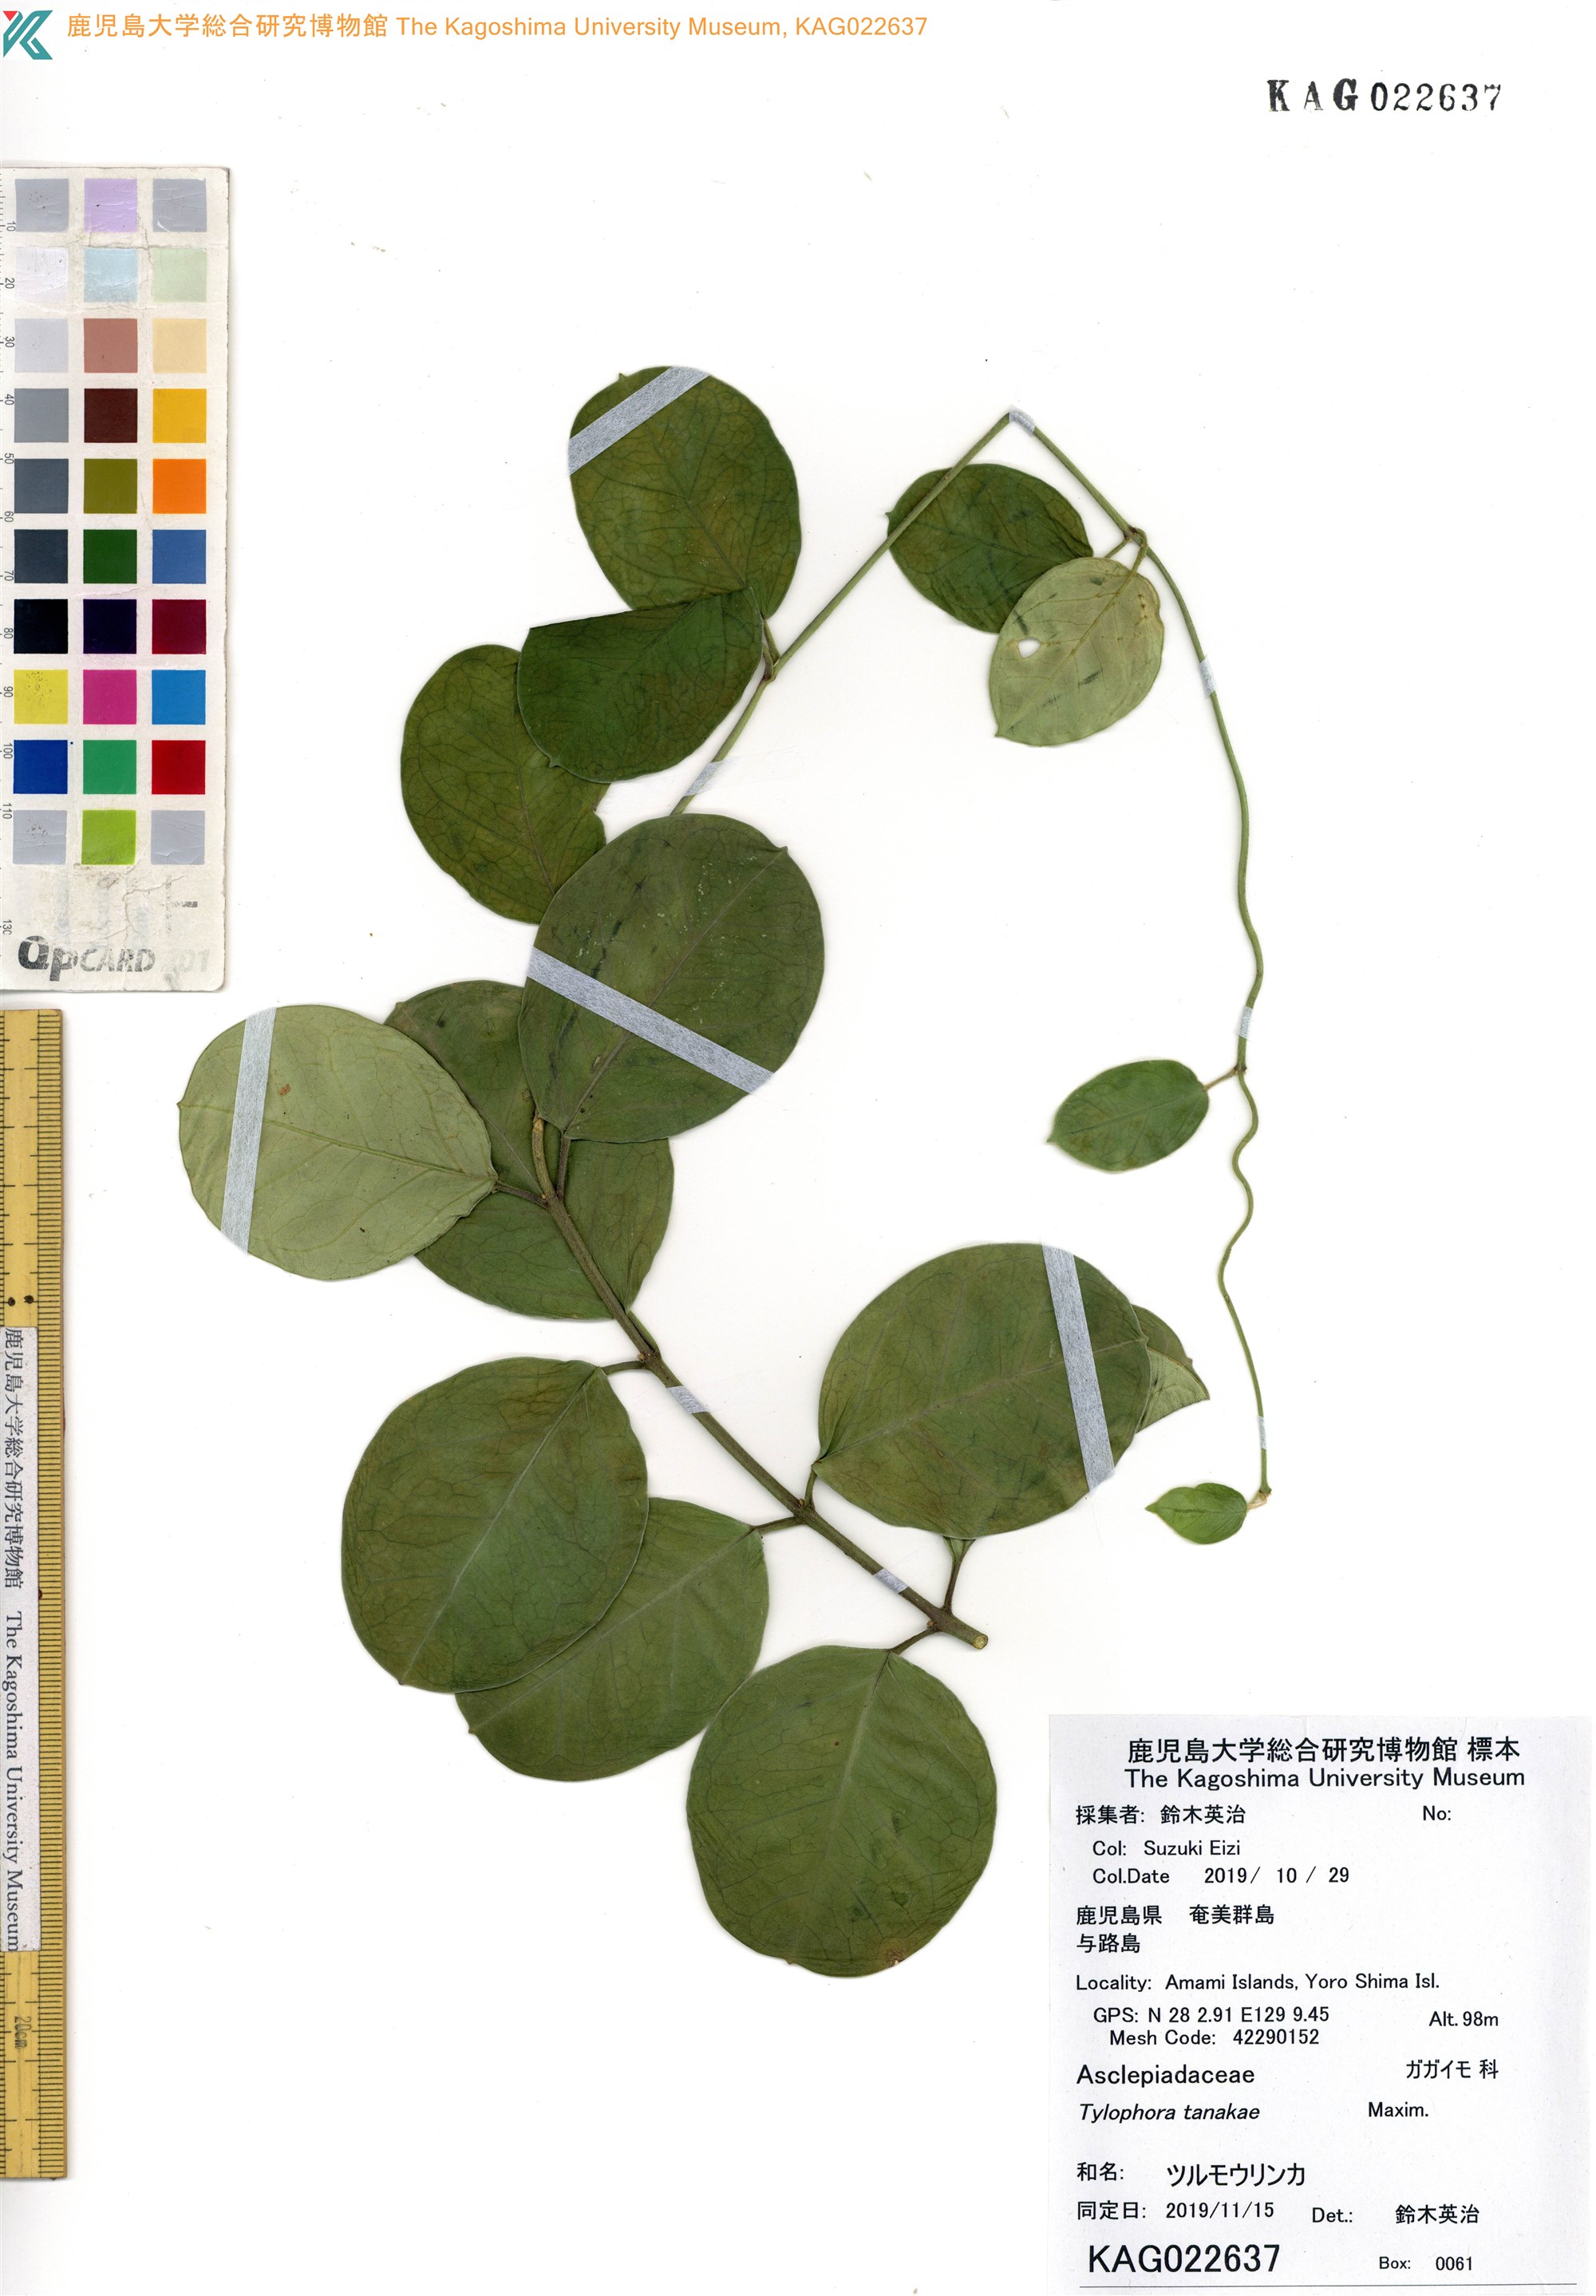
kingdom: Plantae
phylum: Tracheophyta
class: Magnoliopsida
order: Gentianales
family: Apocynaceae
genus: Vincetoxicum
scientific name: Vincetoxicum tanakae
